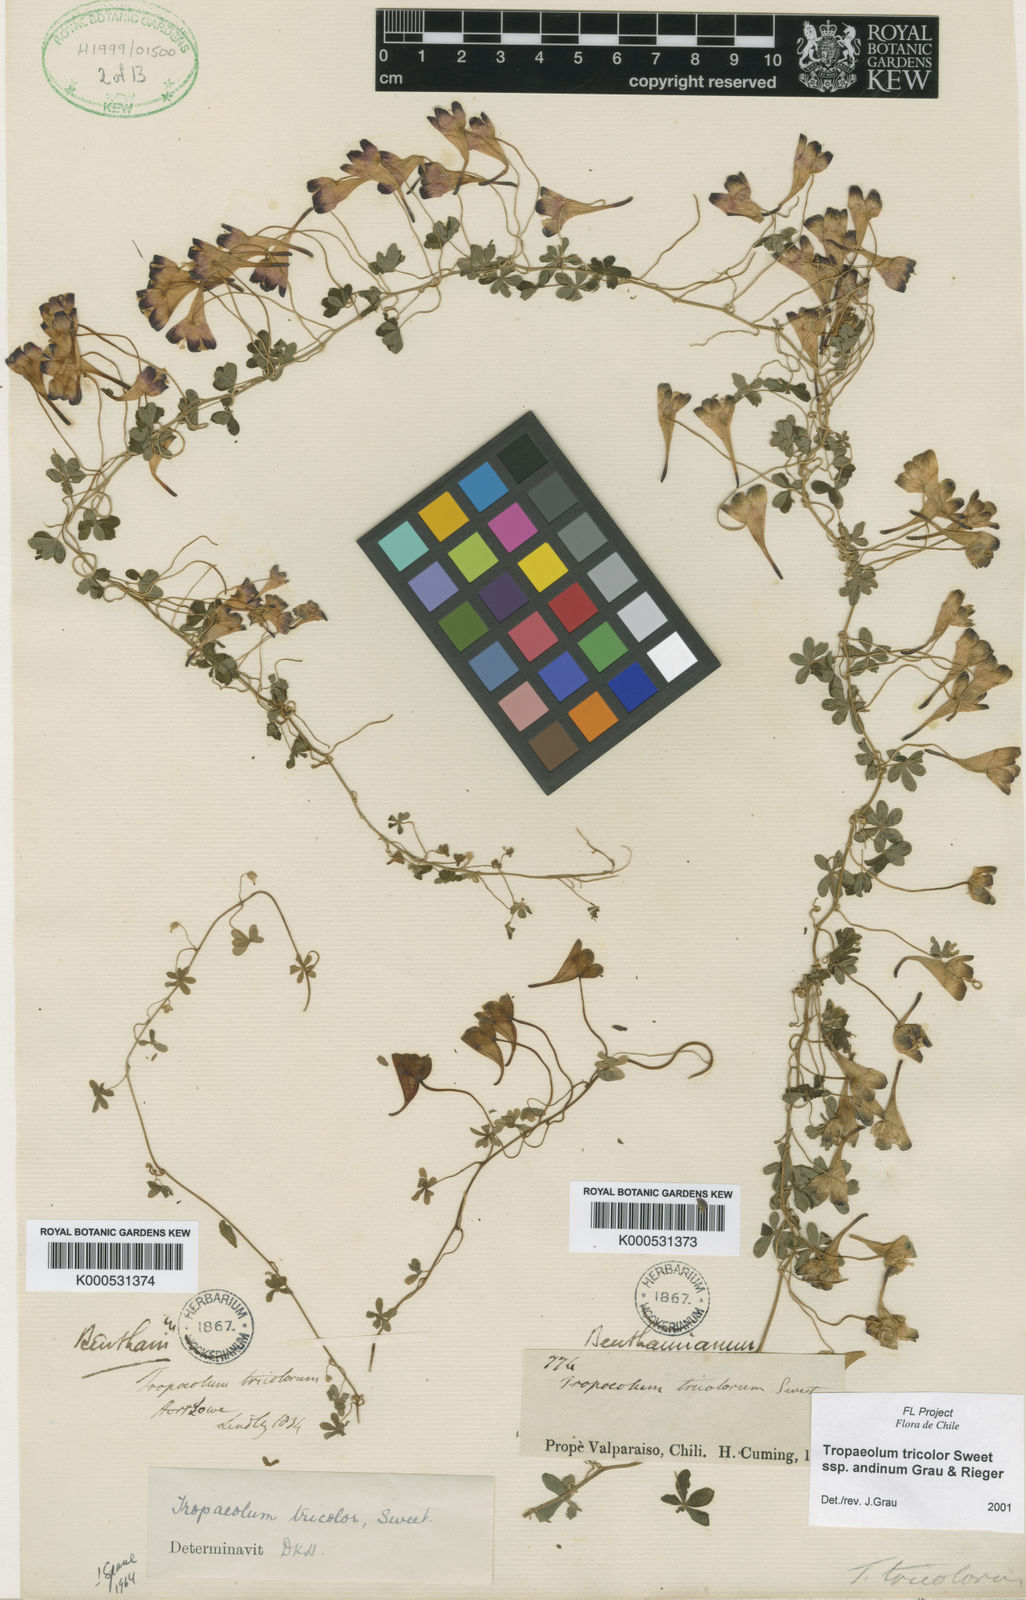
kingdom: Plantae
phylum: Tracheophyta
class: Magnoliopsida
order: Brassicales
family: Tropaeolaceae
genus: Tropaeolum
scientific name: Tropaeolum tricolor
